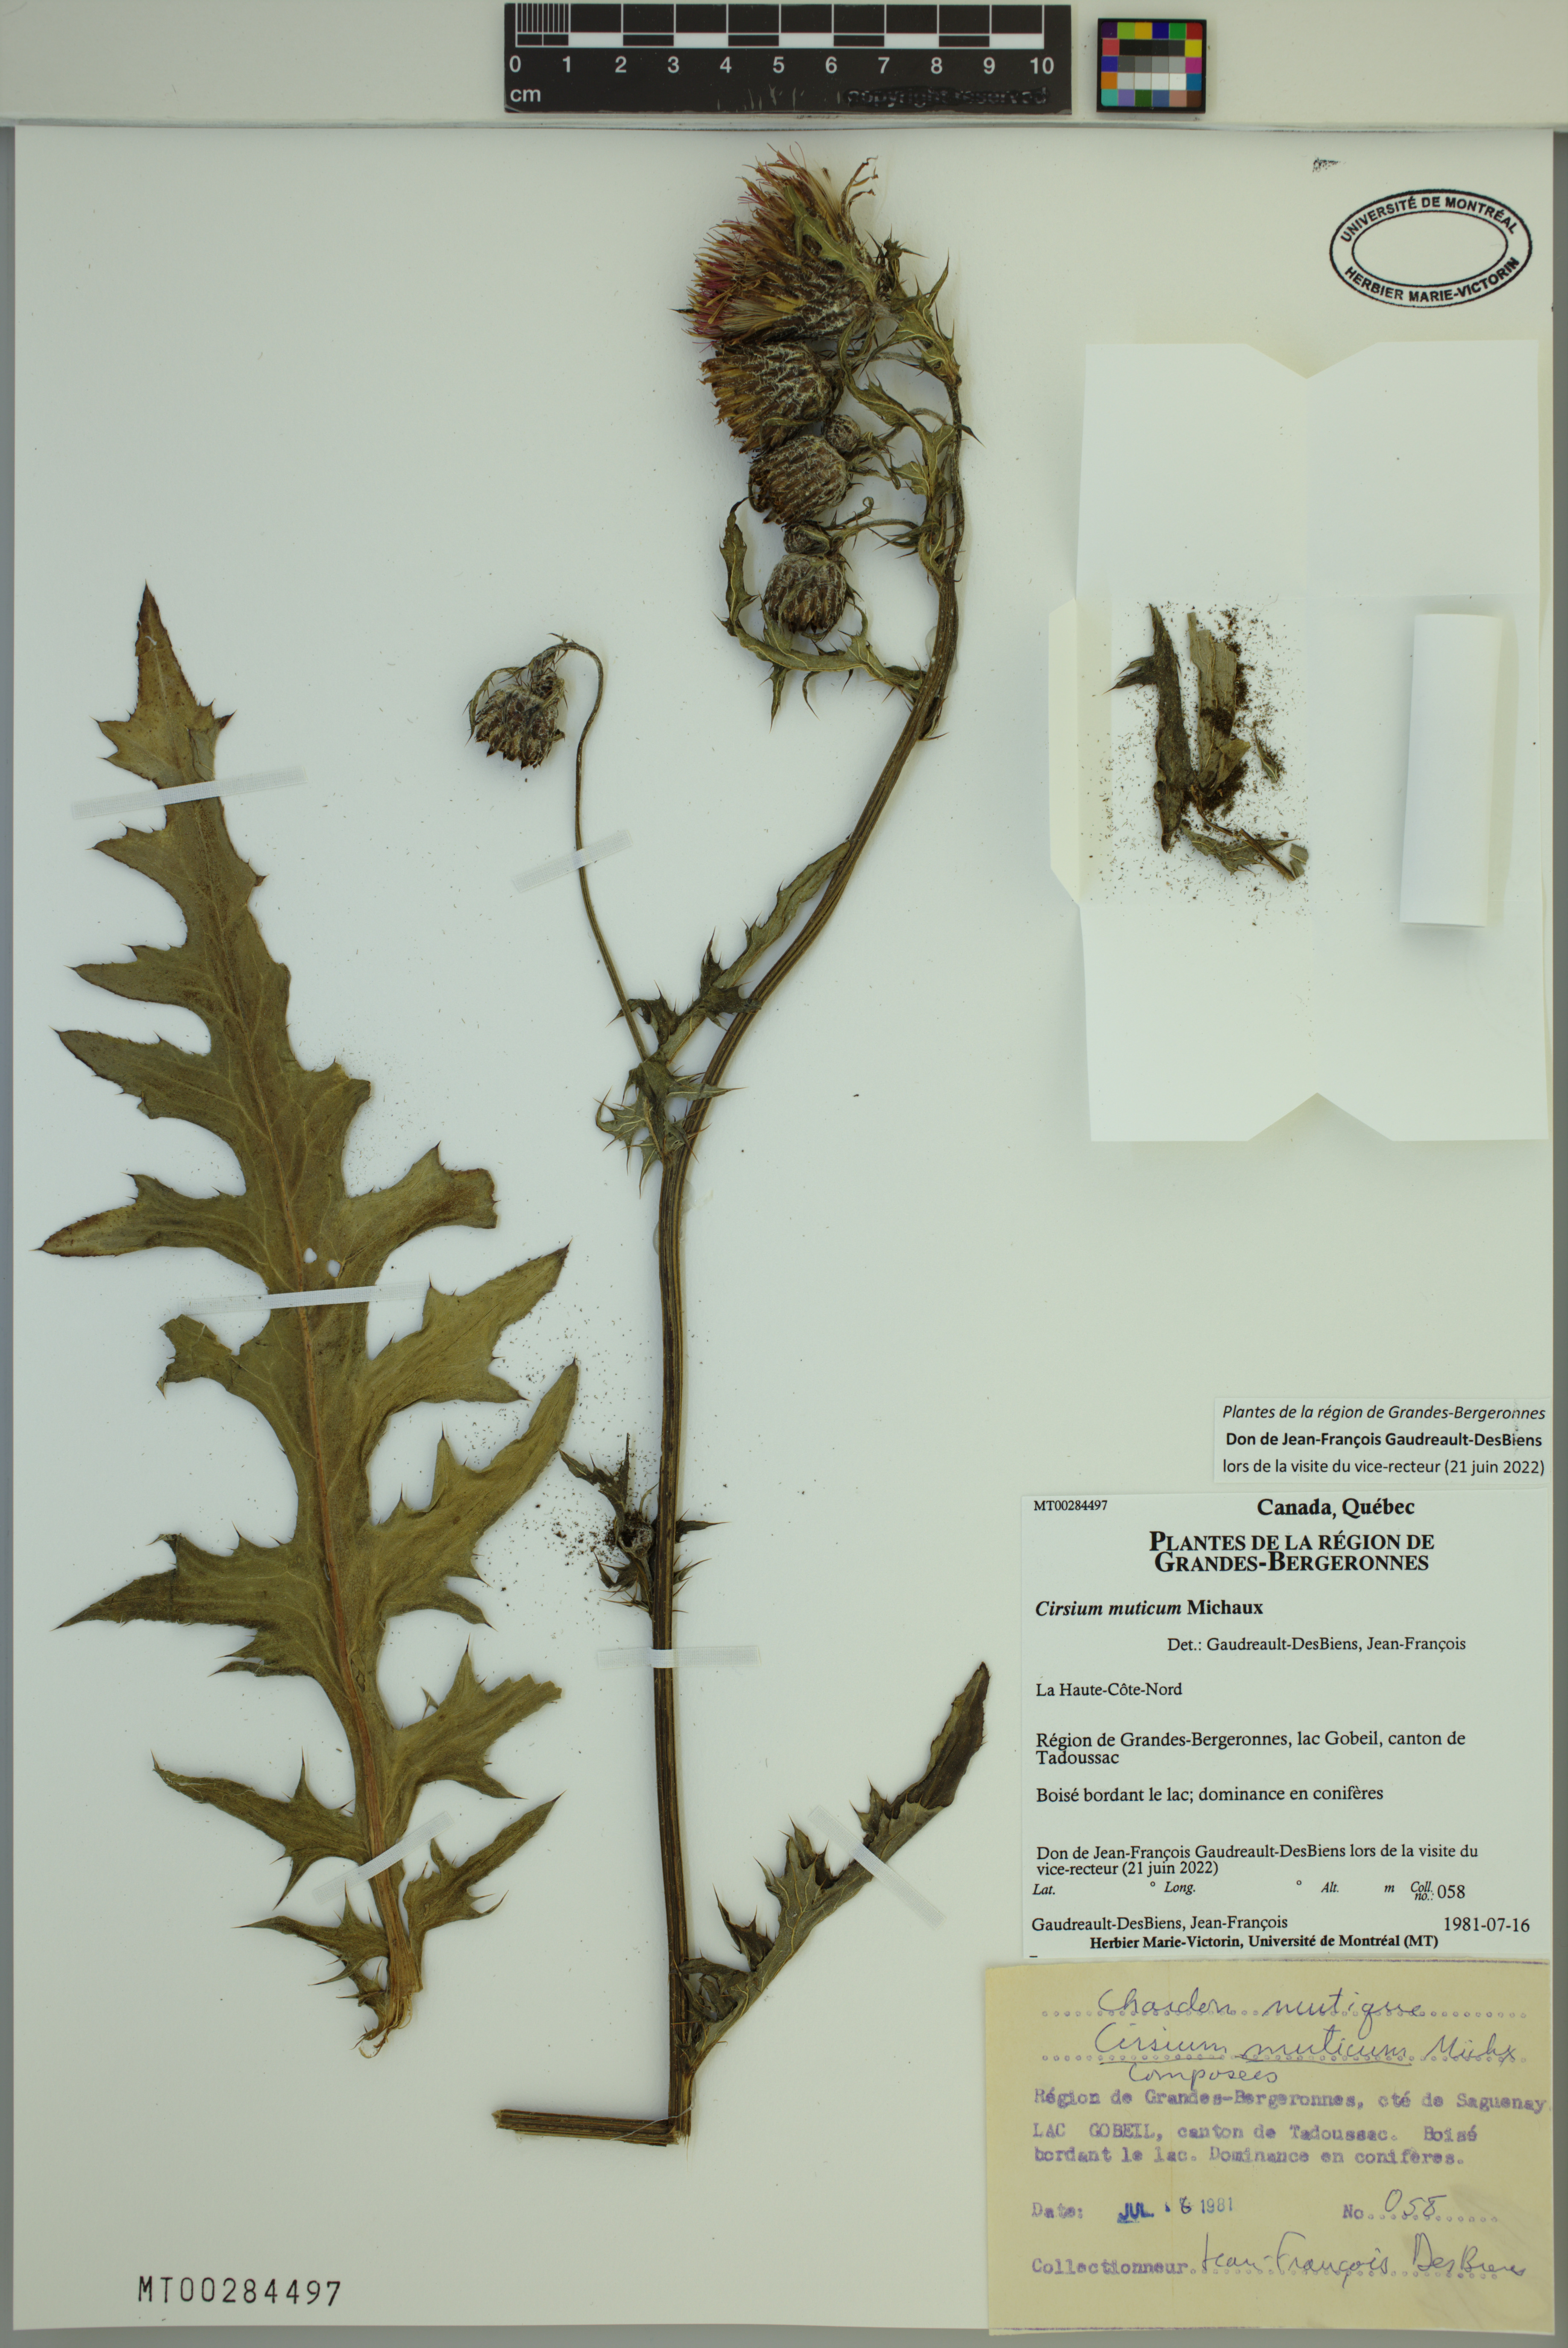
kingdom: Plantae
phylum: Tracheophyta
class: Magnoliopsida
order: Asterales
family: Asteraceae
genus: Cirsium
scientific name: Cirsium muticum
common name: Dunce-nettle
